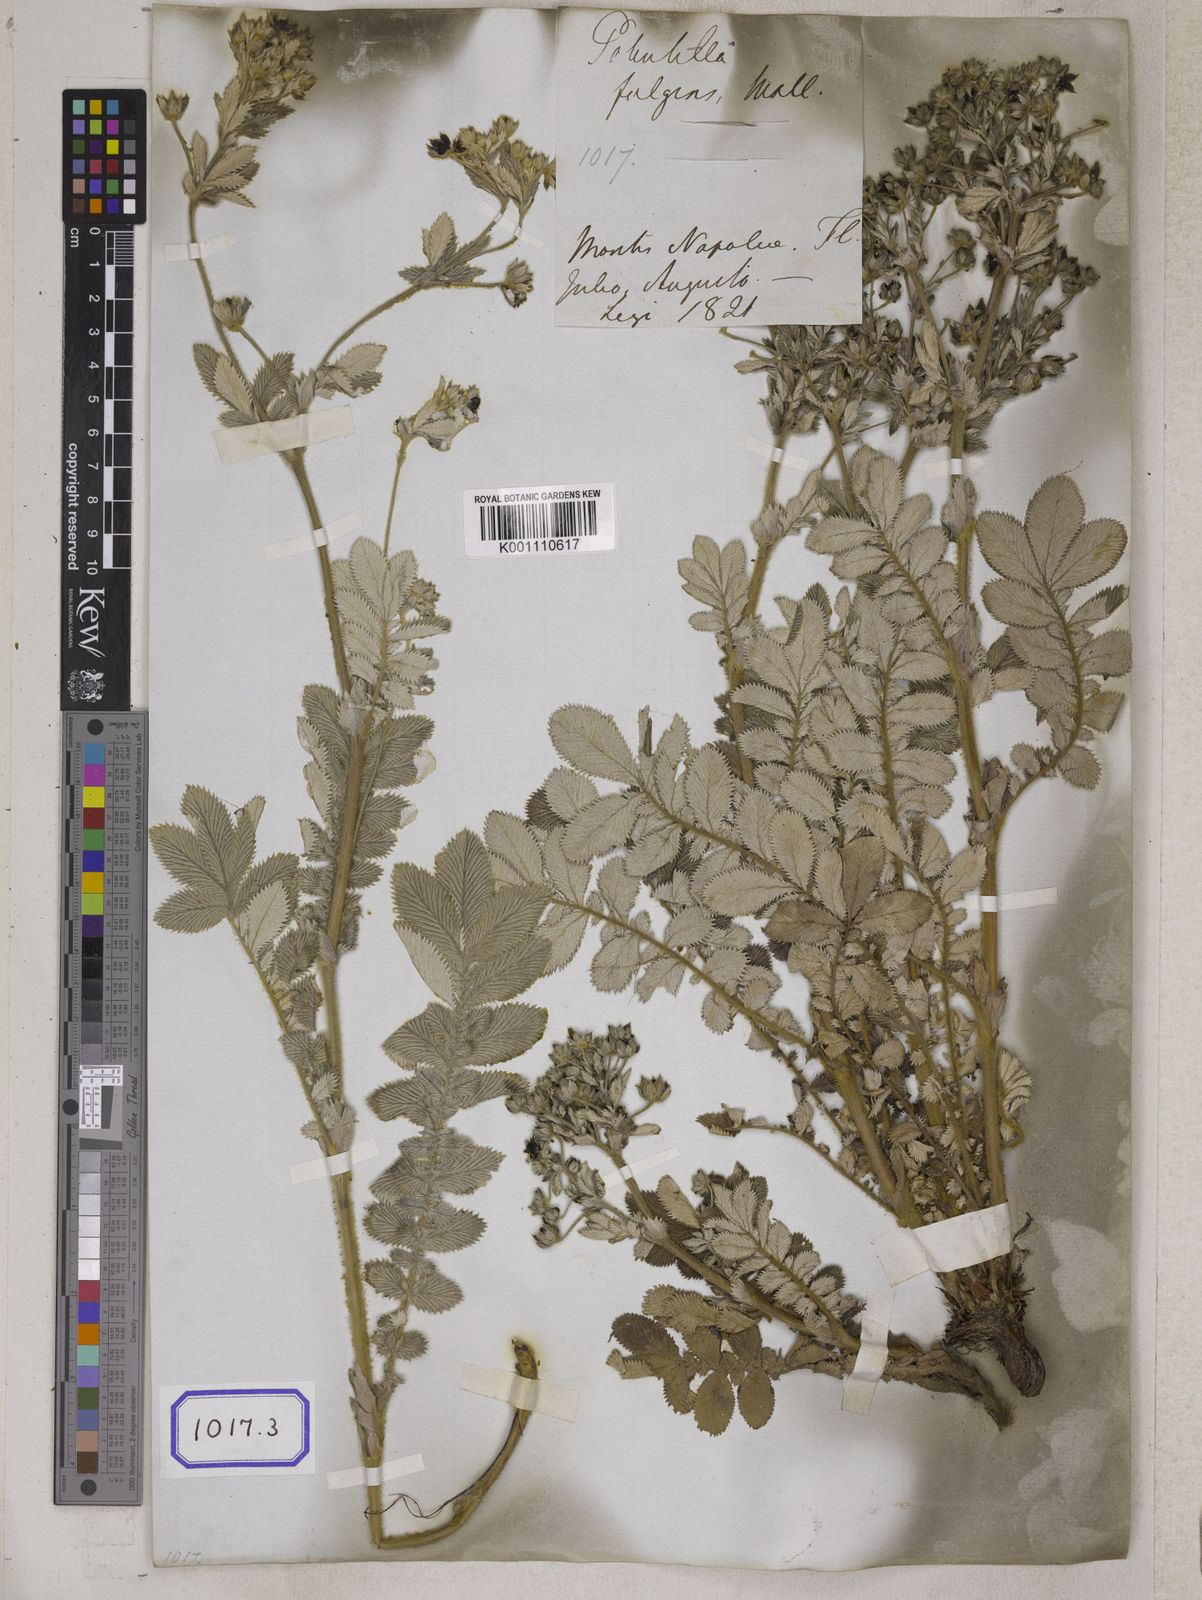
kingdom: Plantae
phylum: Tracheophyta
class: Magnoliopsida
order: Rosales
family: Rosaceae
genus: Potentilla
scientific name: Potentilla
